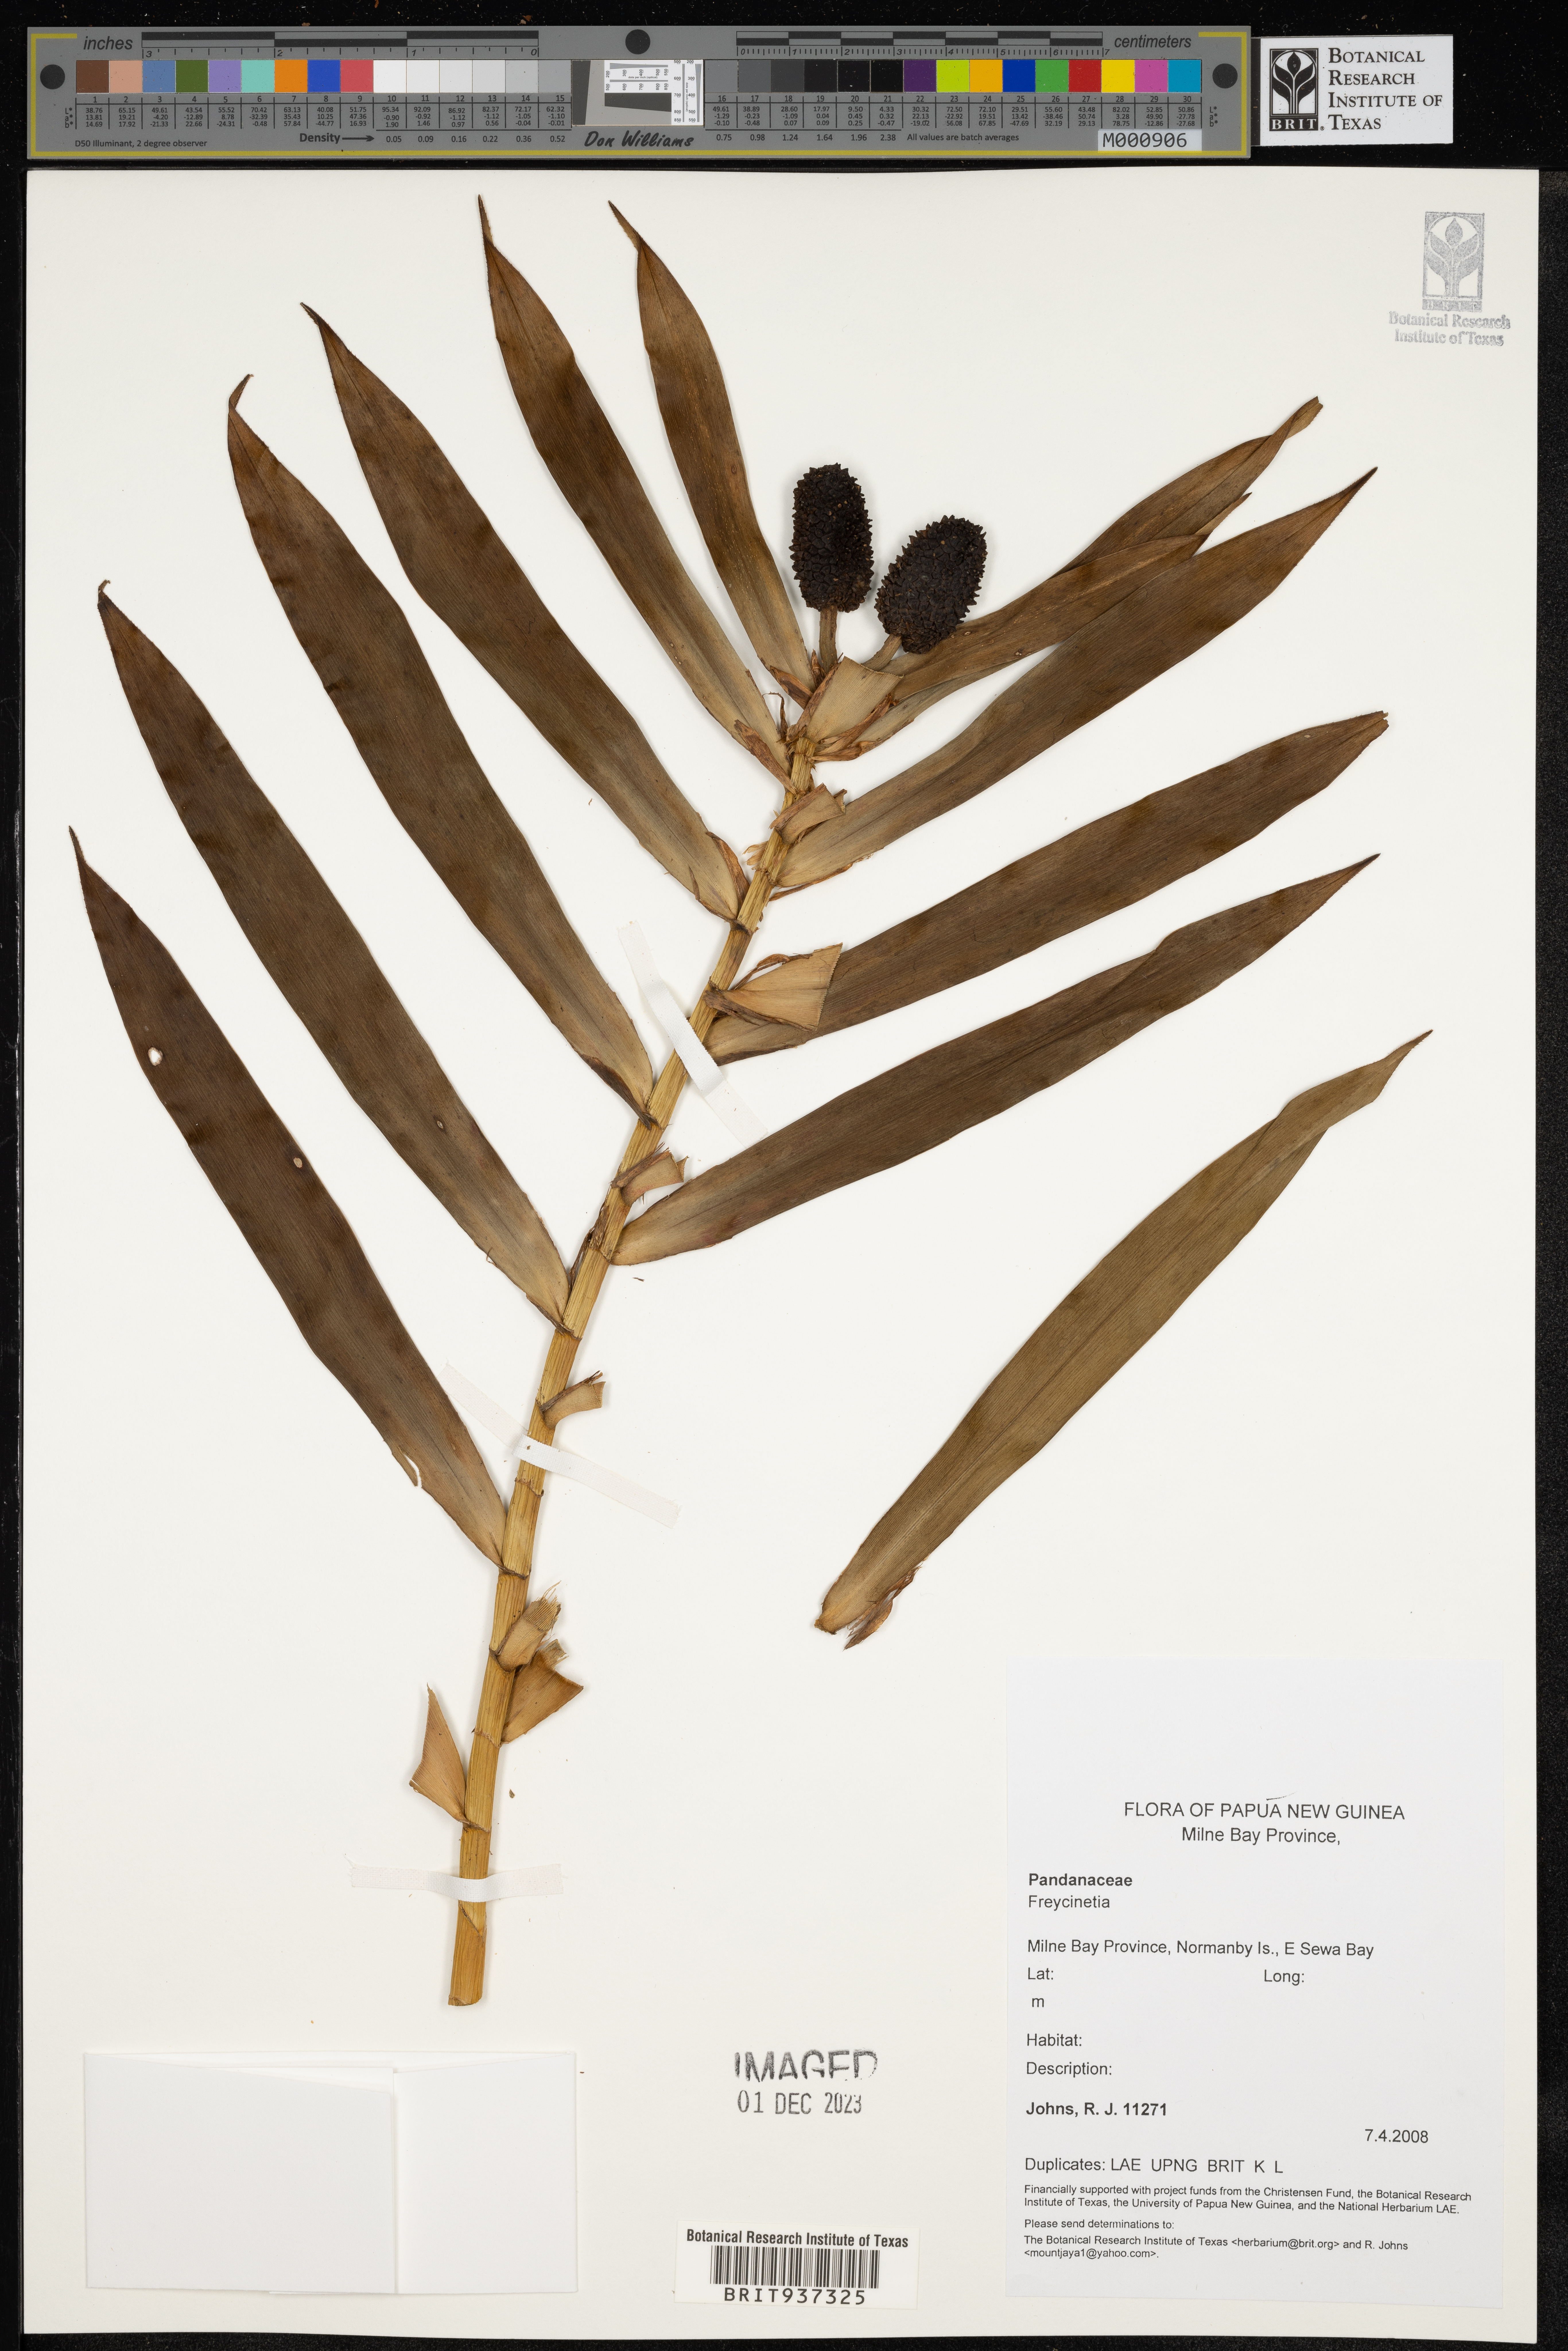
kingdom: Plantae
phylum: Tracheophyta
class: Liliopsida
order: Pandanales
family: Pandanaceae
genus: Freycinetia
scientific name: Freycinetia
